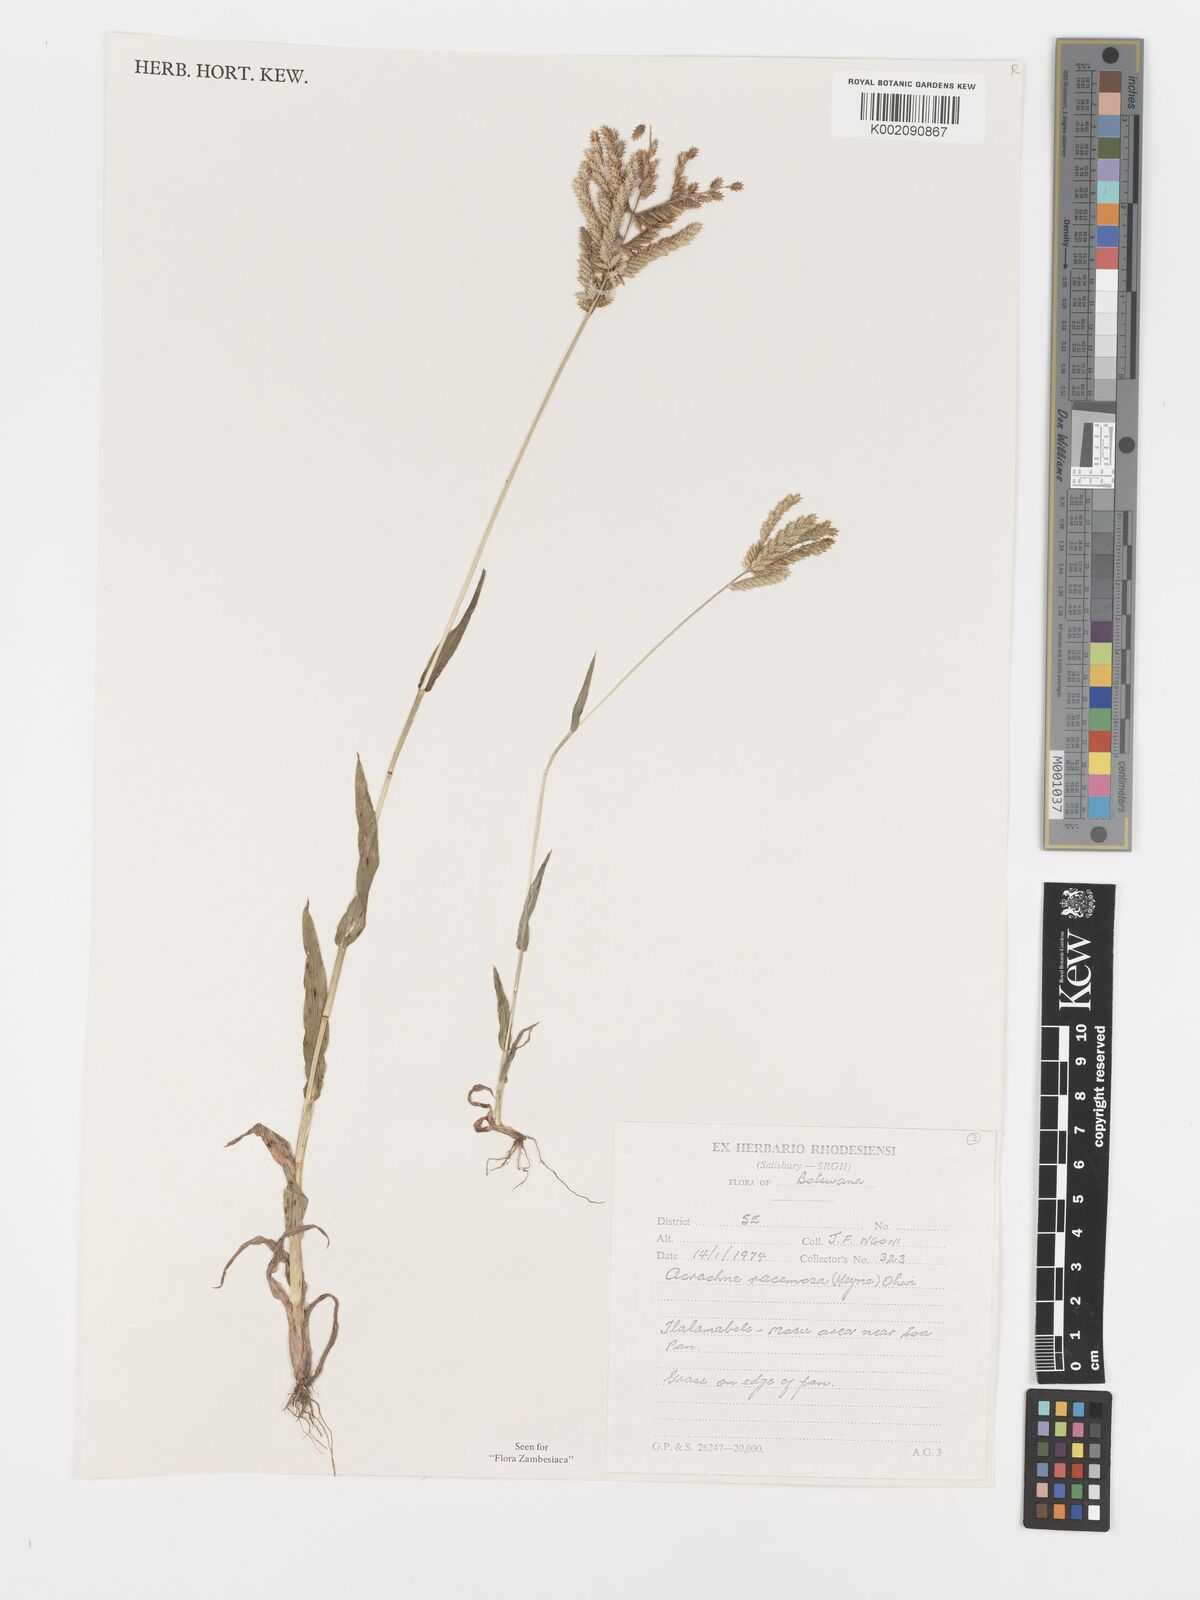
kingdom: Plantae
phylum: Tracheophyta
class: Liliopsida
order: Poales
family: Poaceae
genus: Acrachne
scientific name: Acrachne racemosa
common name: Goosegrass
